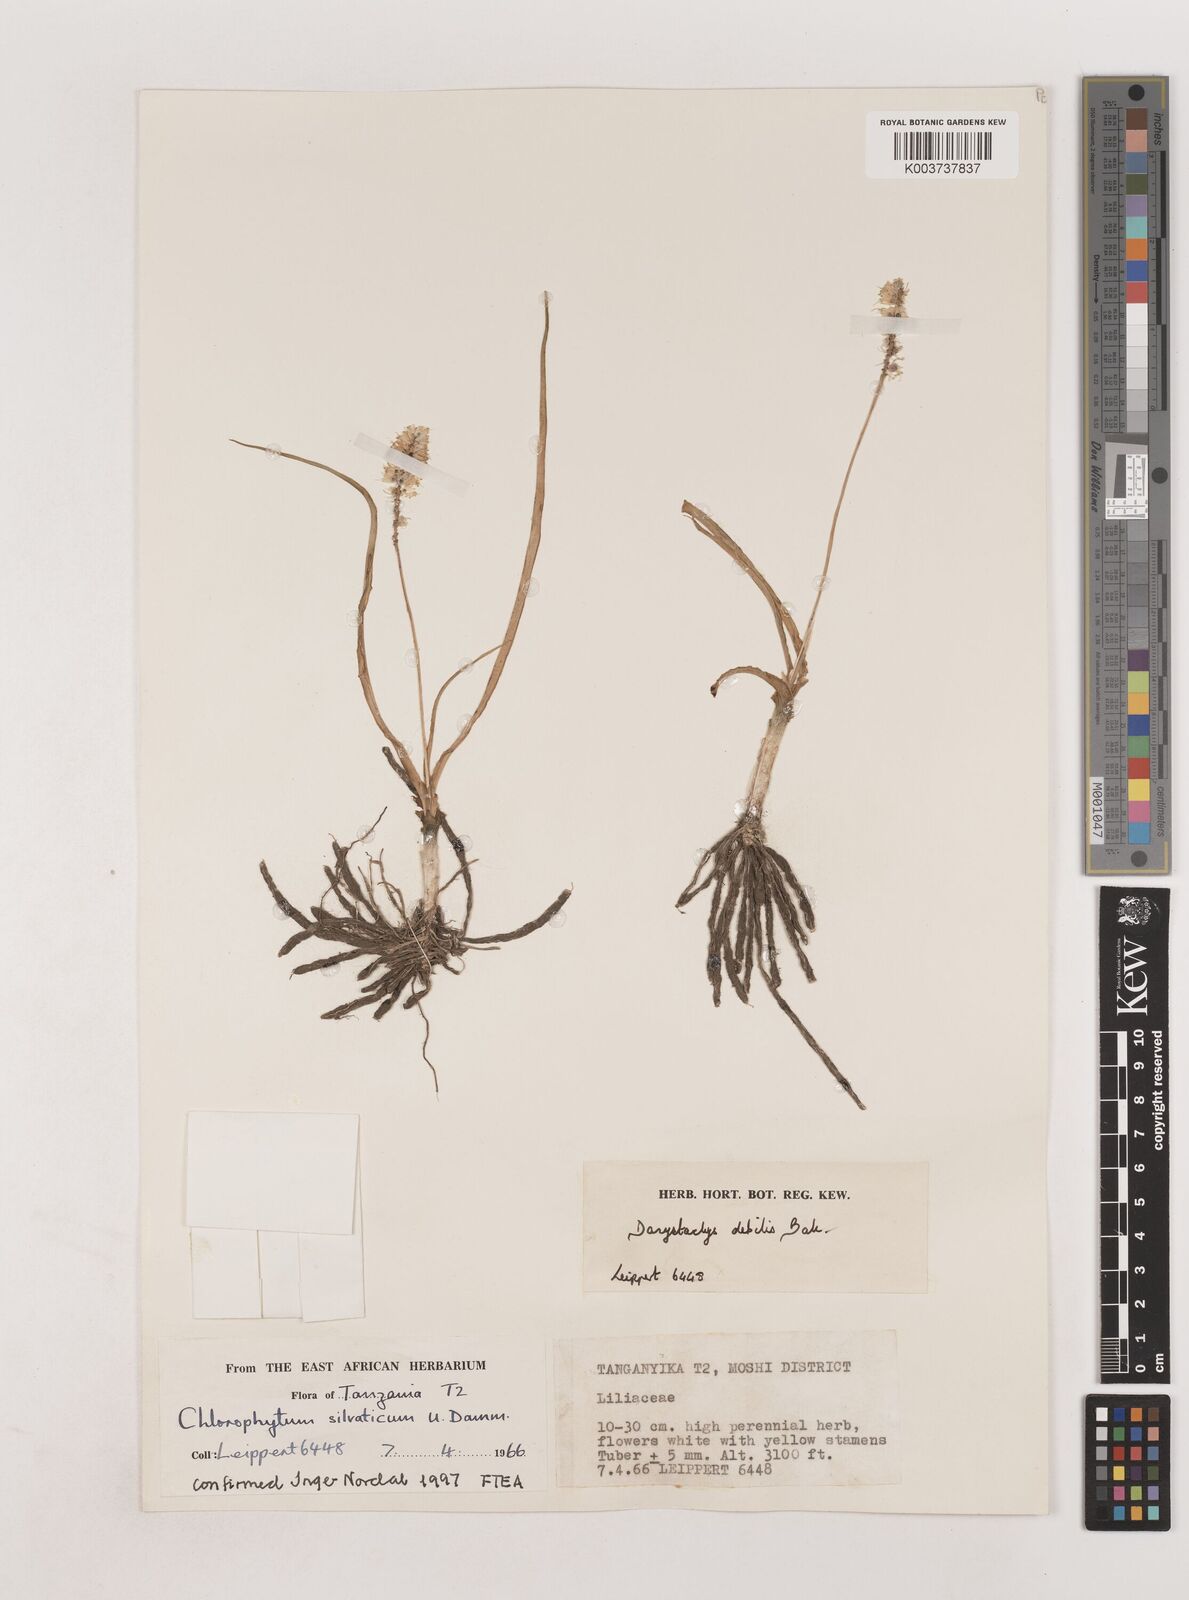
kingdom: Plantae
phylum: Tracheophyta
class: Liliopsida
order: Asparagales
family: Asparagaceae
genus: Chlorophytum
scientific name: Chlorophytum africanum
